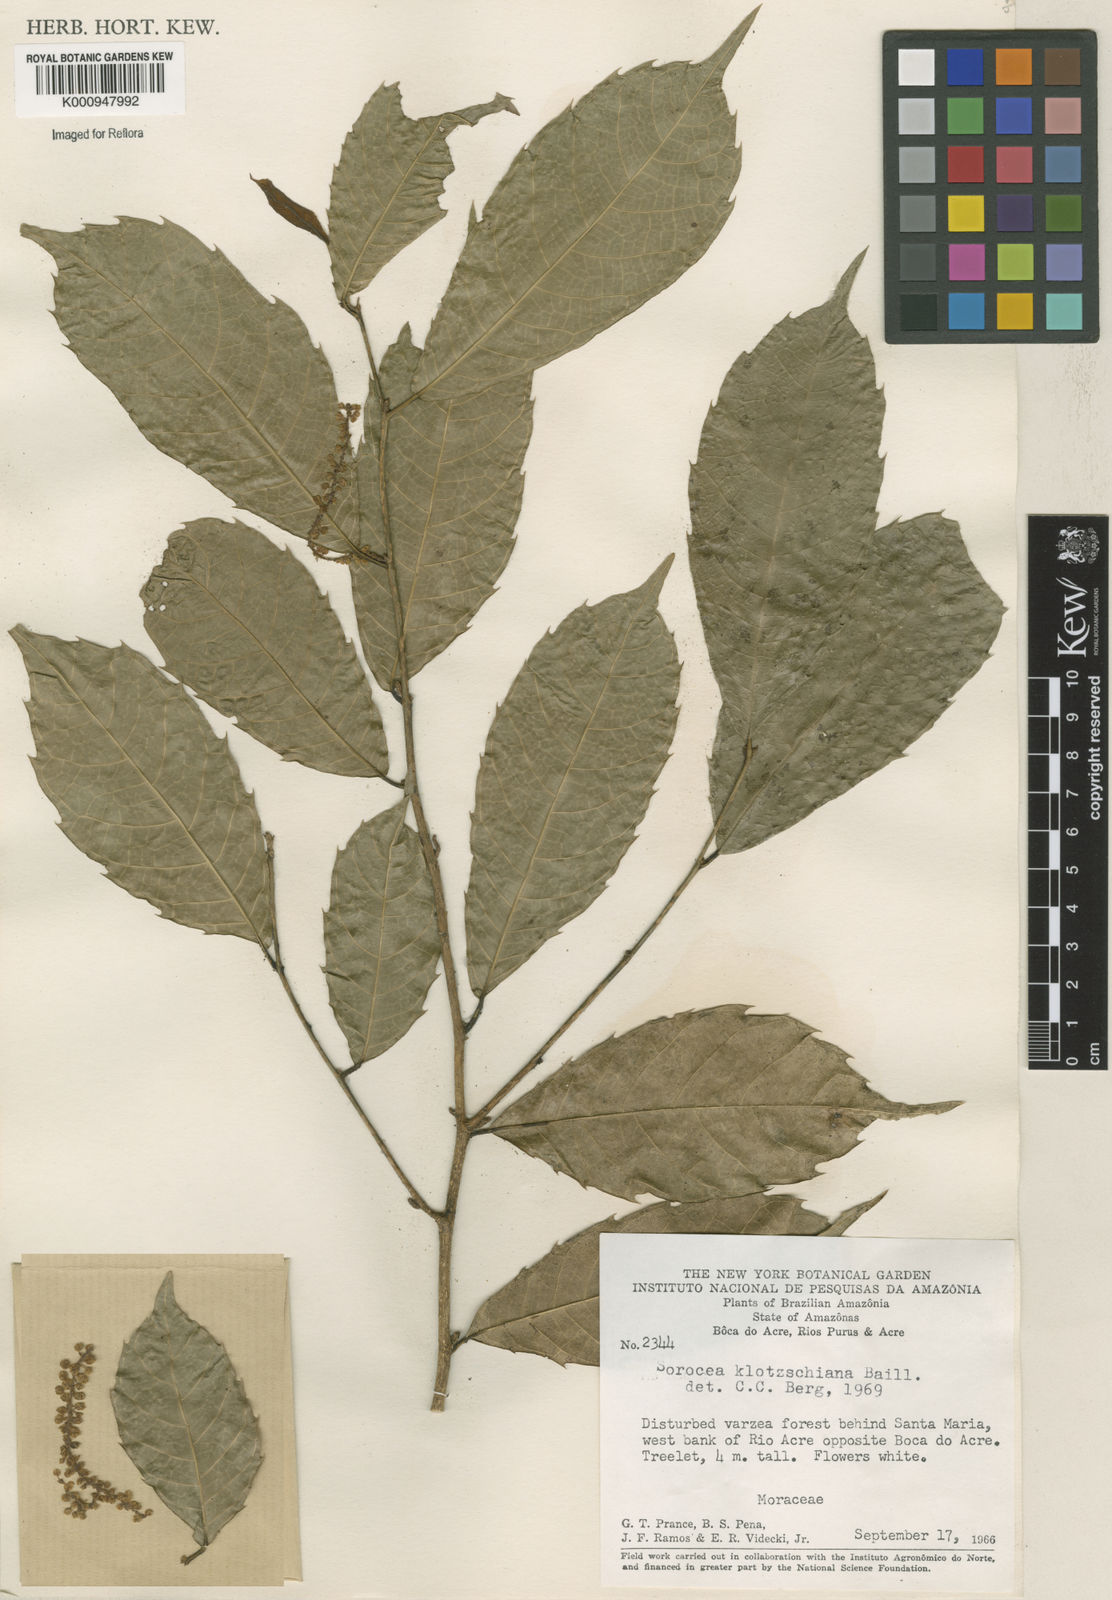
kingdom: Plantae
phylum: Tracheophyta
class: Magnoliopsida
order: Rosales
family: Moraceae
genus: Sorocea
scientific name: Sorocea guilleminiana
